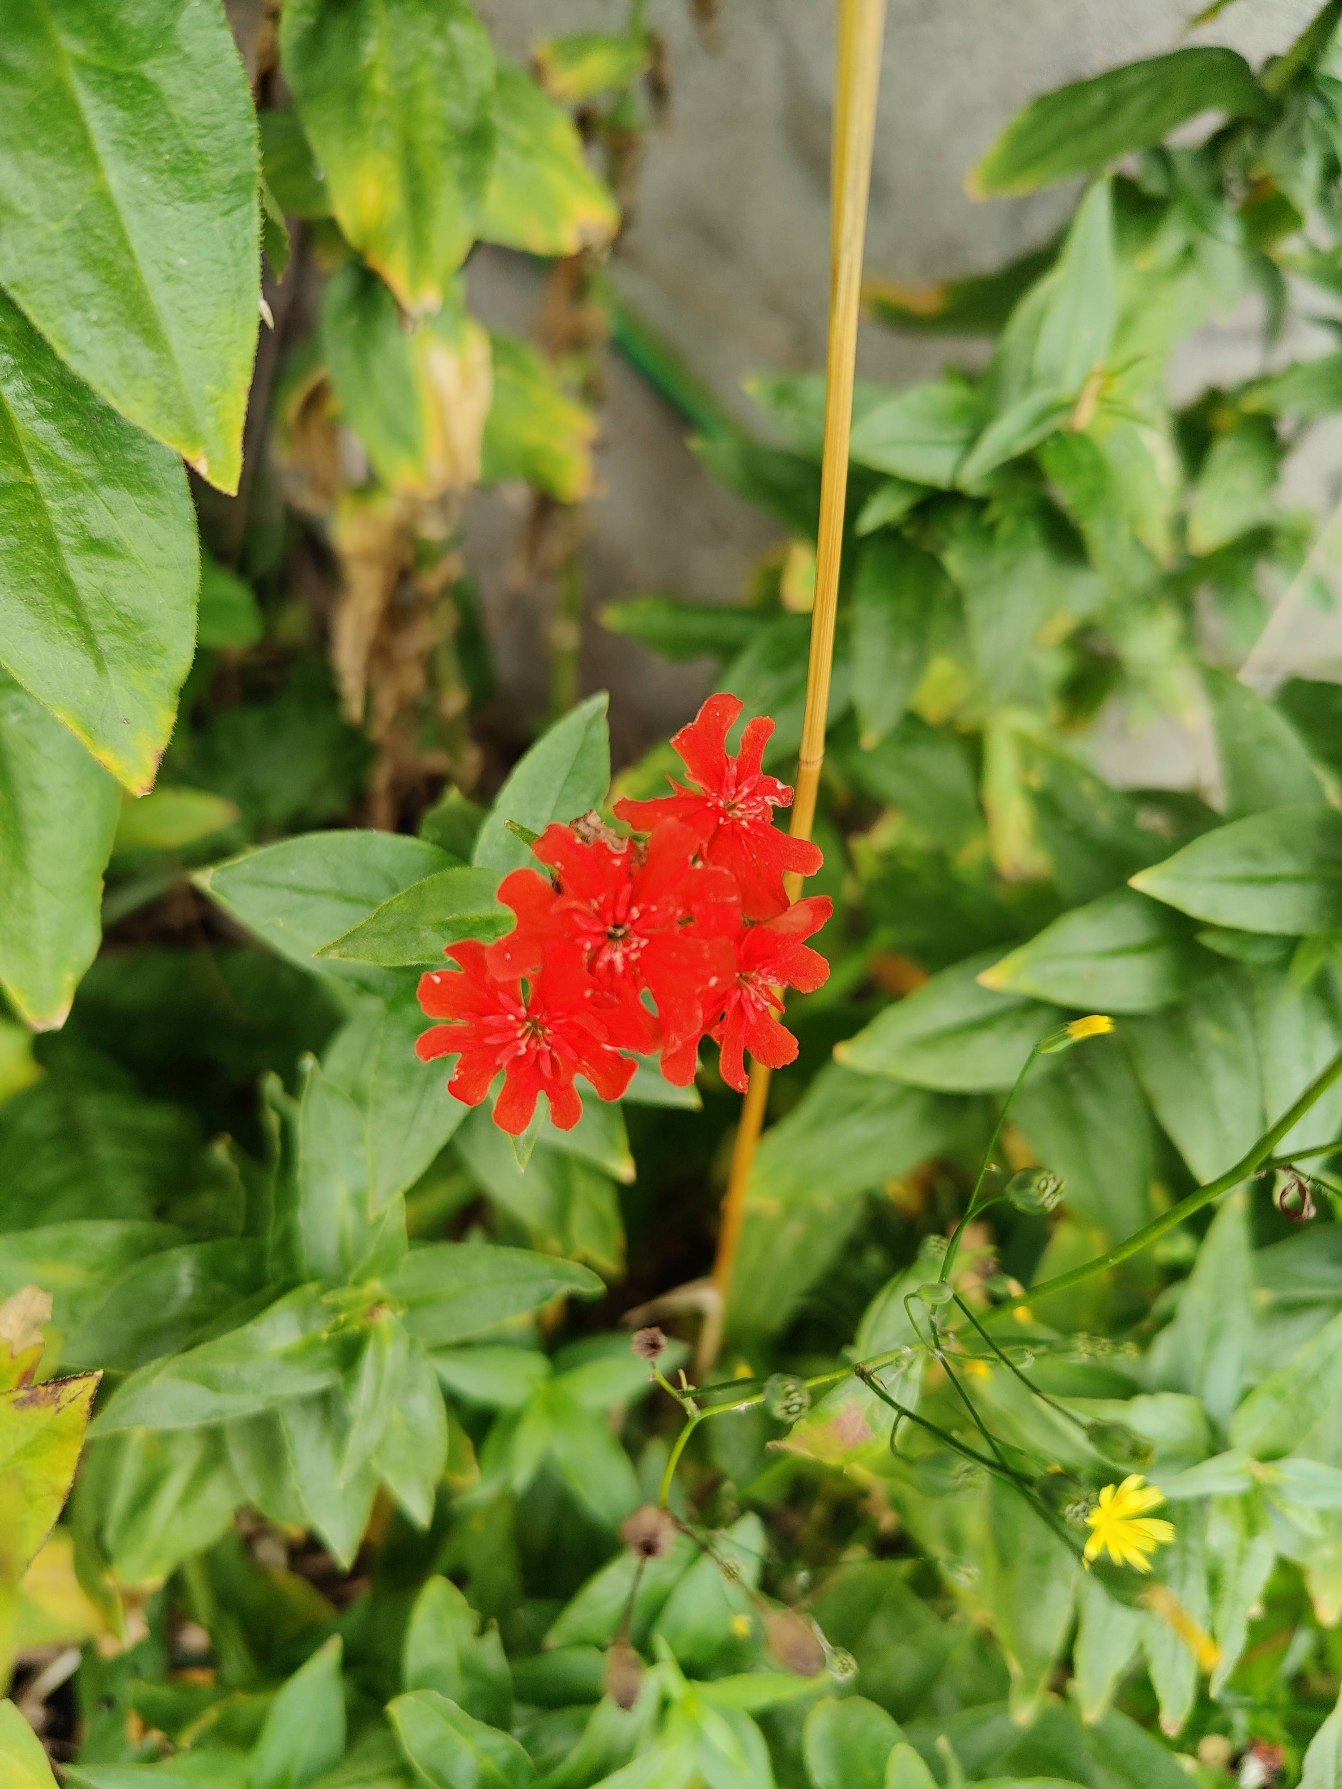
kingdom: Plantae
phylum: Tracheophyta
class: Magnoliopsida
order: Caryophyllales
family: Caryophyllaceae
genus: Silene
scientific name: Silene chalcedonica
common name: Brændende kærlighed
